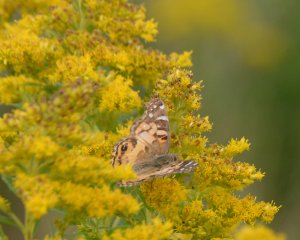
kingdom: Animalia
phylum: Arthropoda
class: Insecta
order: Lepidoptera
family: Nymphalidae
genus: Vanessa
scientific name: Vanessa virginiensis
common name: American Lady
